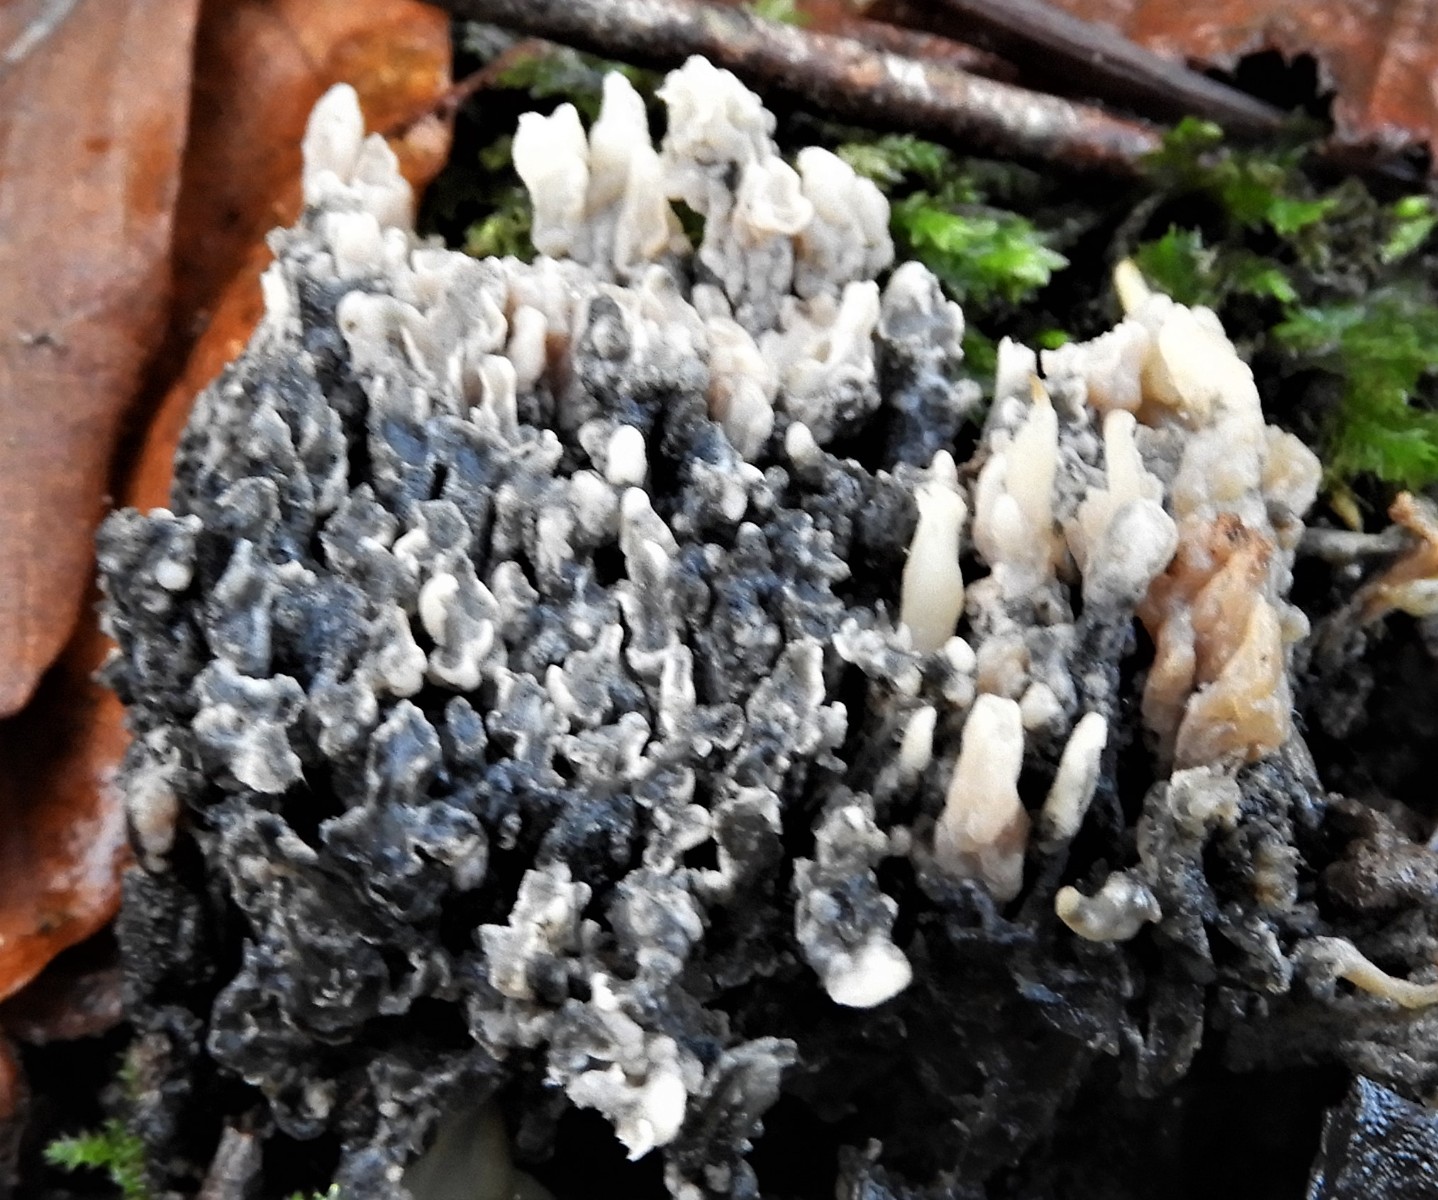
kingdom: Fungi
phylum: Ascomycota
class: Sordariomycetes
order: Sordariales
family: Helminthosphaeriaceae
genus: Helminthosphaeria
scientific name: Helminthosphaeria clavariarum
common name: trold-svampesnyltekerne
